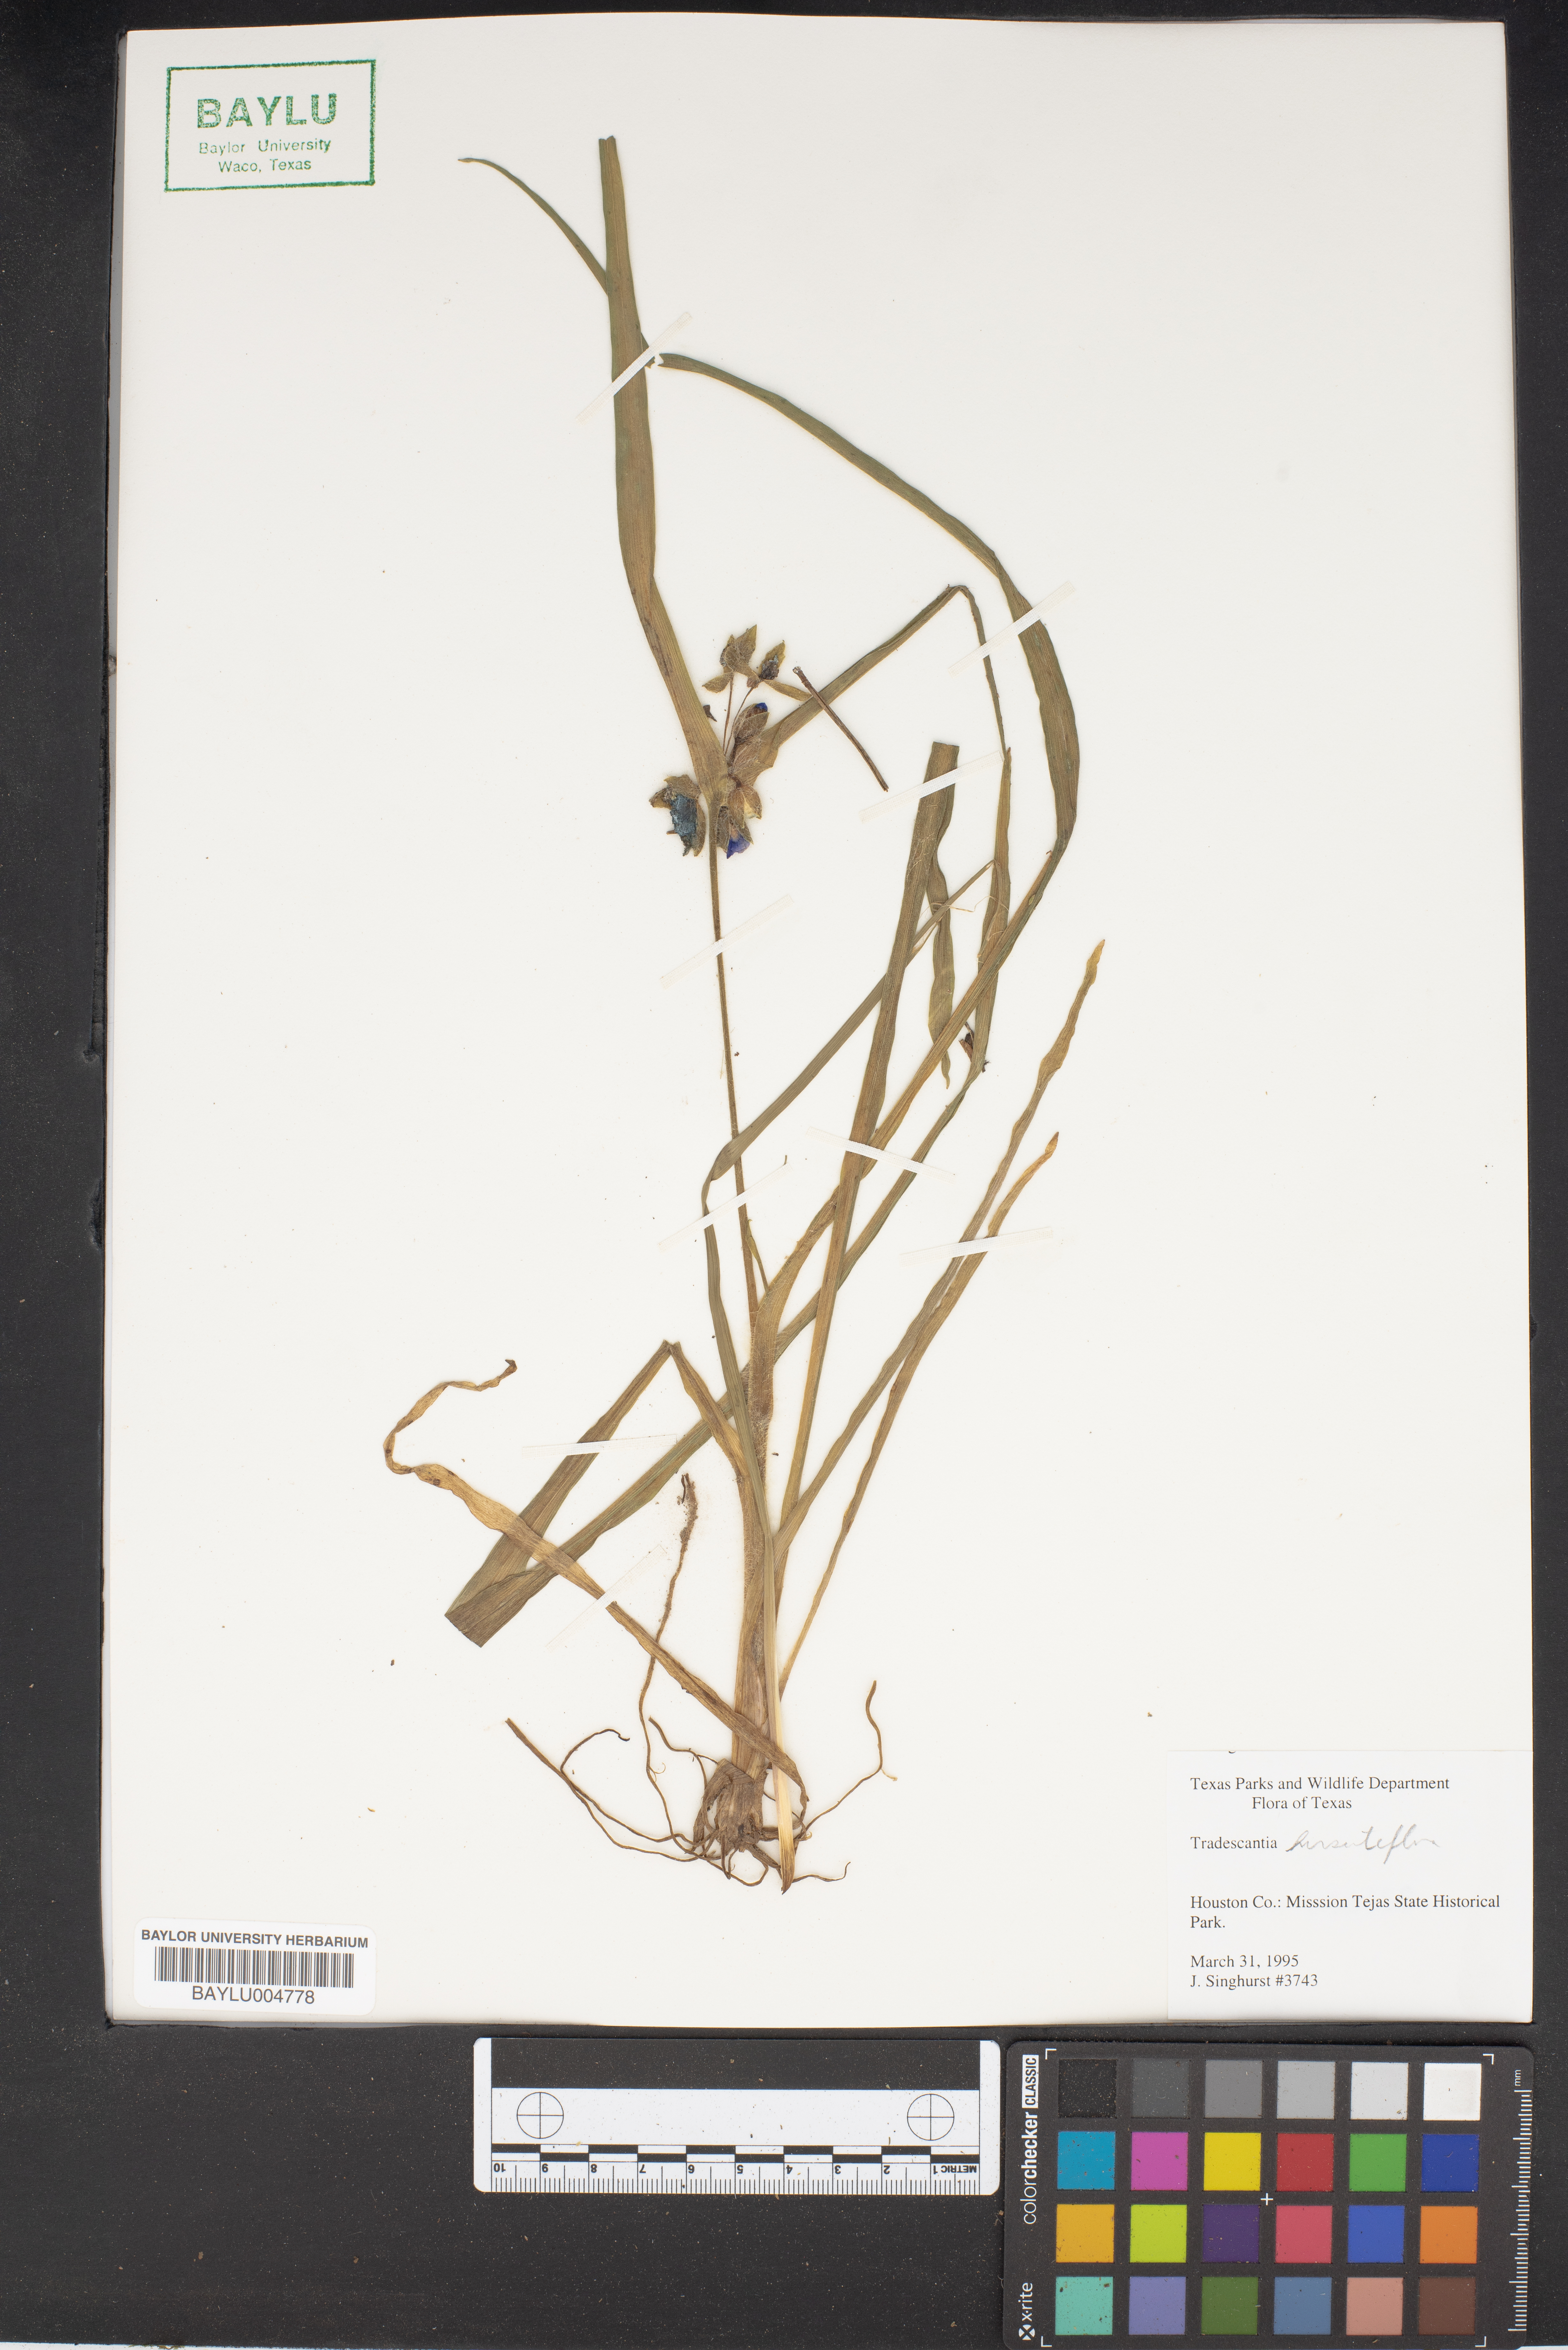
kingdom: Plantae
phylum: Tracheophyta
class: Liliopsida
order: Commelinales
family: Commelinaceae
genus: Tradescantia
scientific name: Tradescantia hirsutiflora
